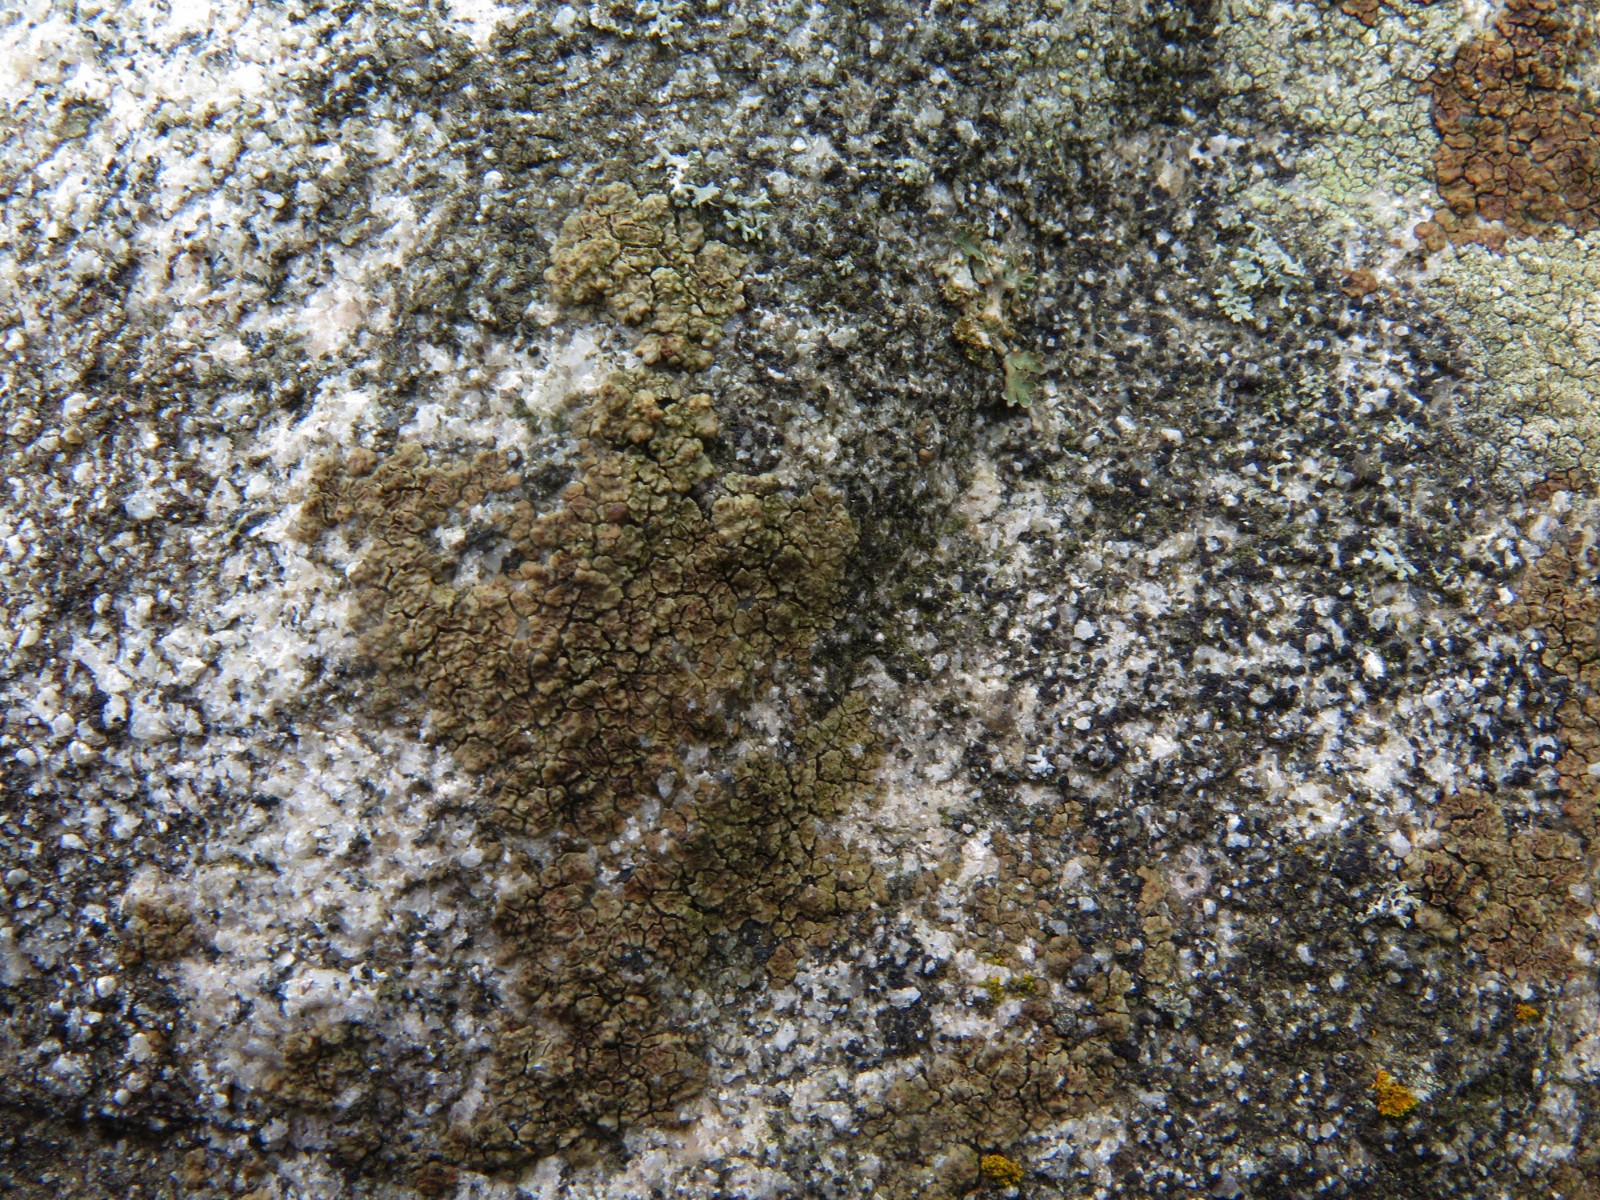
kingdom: Fungi
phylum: Ascomycota
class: Lecanoromycetes
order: Acarosporales
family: Acarosporaceae
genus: Acarospora
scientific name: Acarospora fuscata
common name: brun småsporelav
